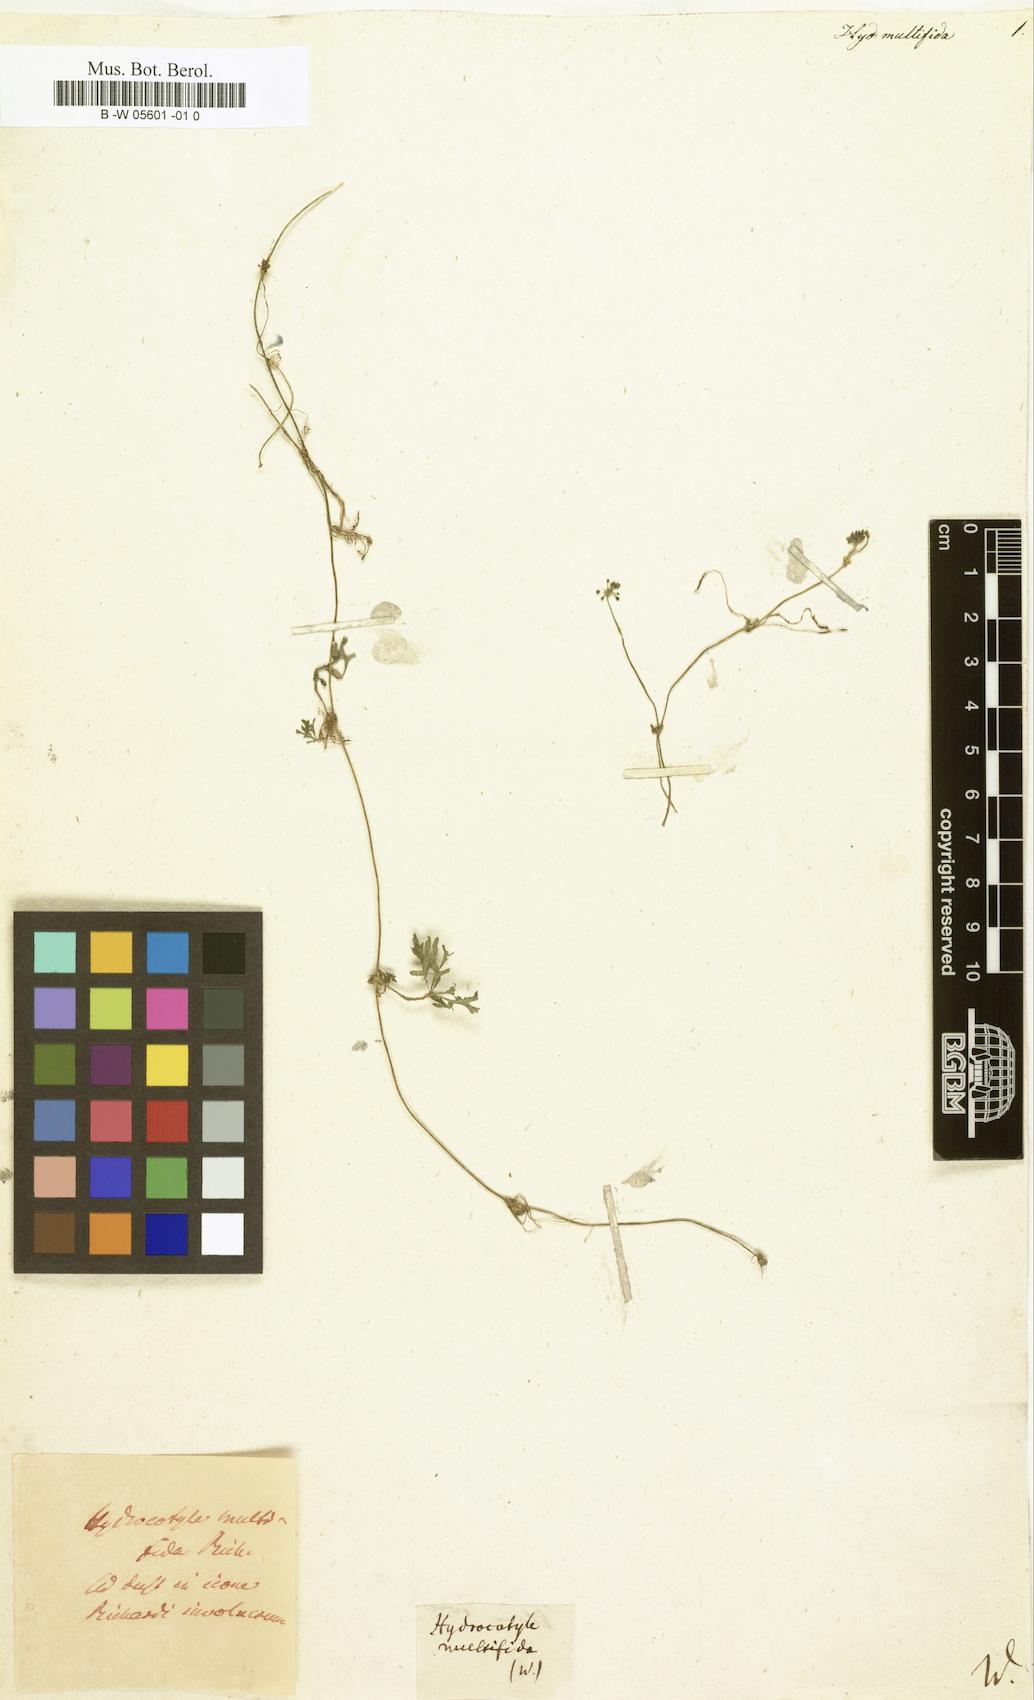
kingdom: Plantae
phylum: Tracheophyta
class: Magnoliopsida
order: Apiales
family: Araliaceae
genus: Hydrocotyle
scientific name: Hydrocotyle multifida
